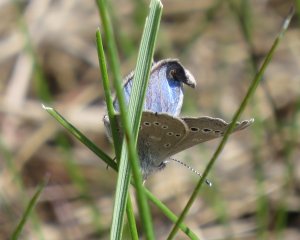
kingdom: Animalia
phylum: Arthropoda
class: Insecta
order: Lepidoptera
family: Lycaenidae
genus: Glaucopsyche
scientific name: Glaucopsyche lygdamus
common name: Silvery Blue
